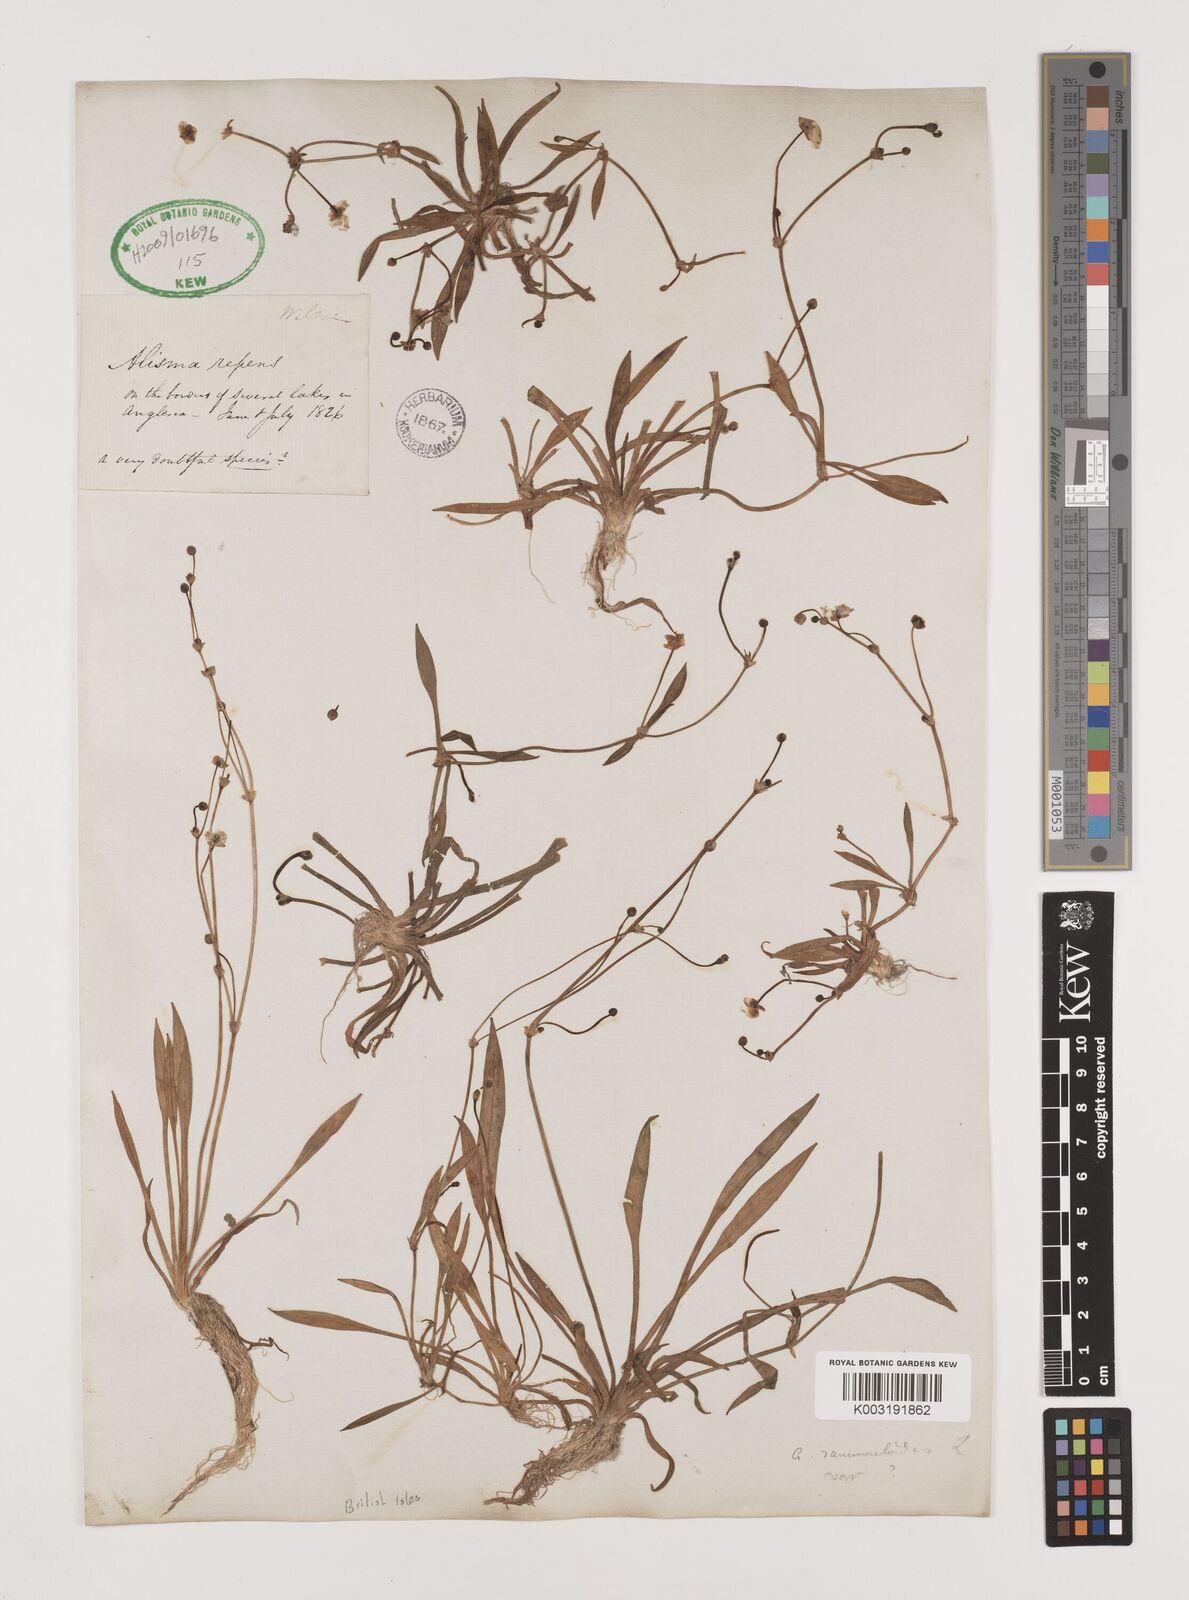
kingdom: Plantae
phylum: Tracheophyta
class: Liliopsida
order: Alismatales
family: Alismataceae
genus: Baldellia
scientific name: Baldellia repens
